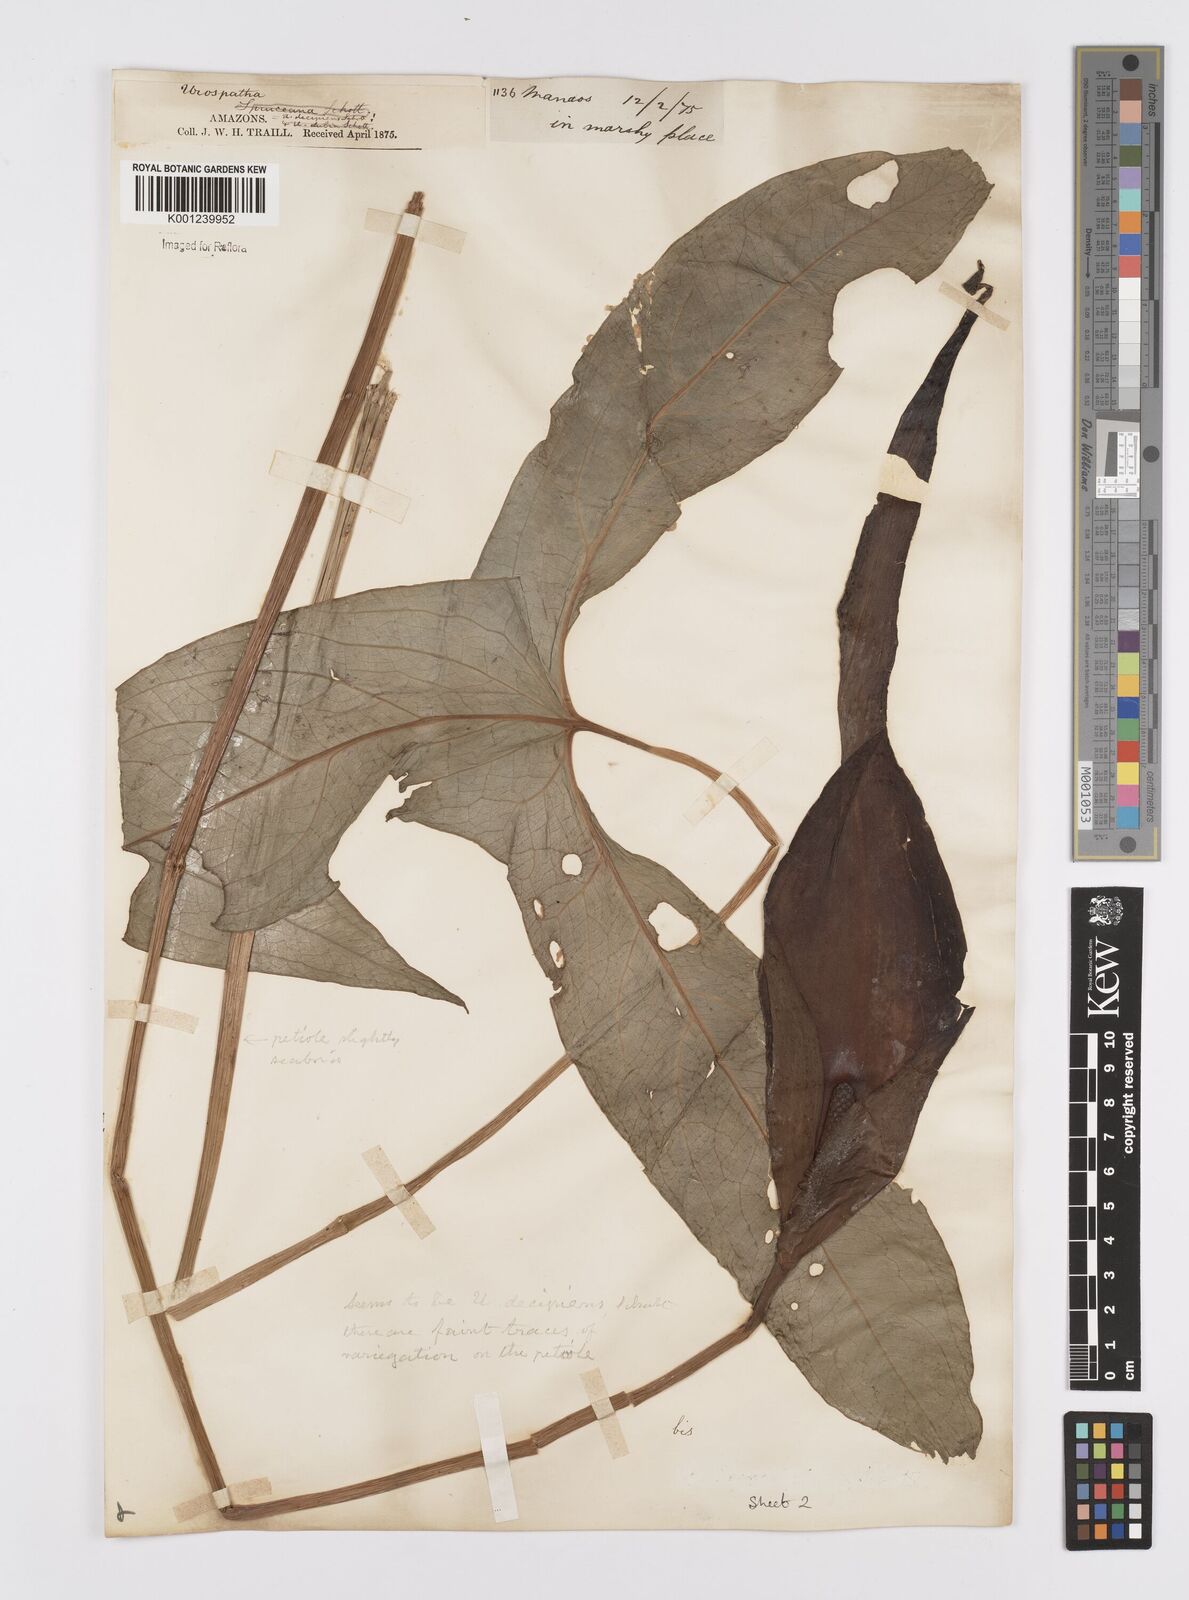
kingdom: Plantae
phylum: Tracheophyta
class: Liliopsida
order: Alismatales
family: Araceae
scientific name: Araceae
